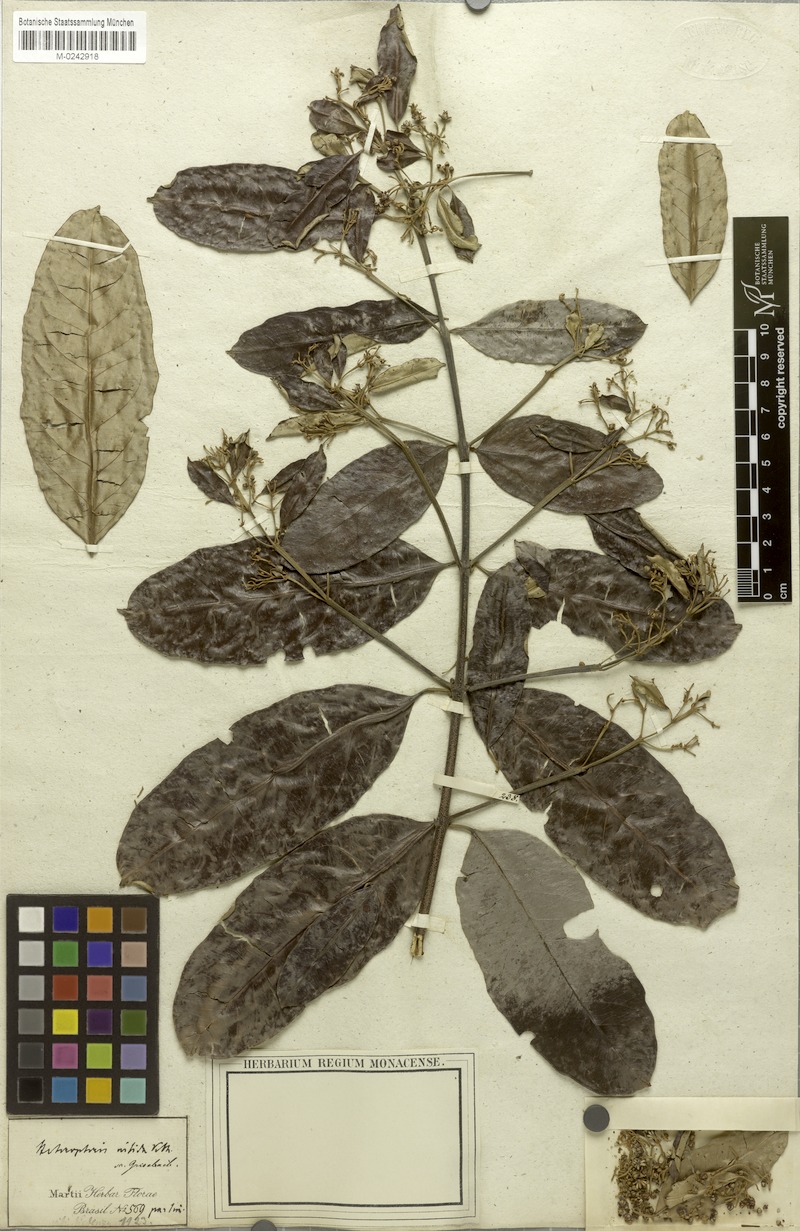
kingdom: Plantae
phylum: Tracheophyta
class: Magnoliopsida
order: Malpighiales
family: Malpighiaceae
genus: Heteropterys
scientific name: Heteropterys nitida
